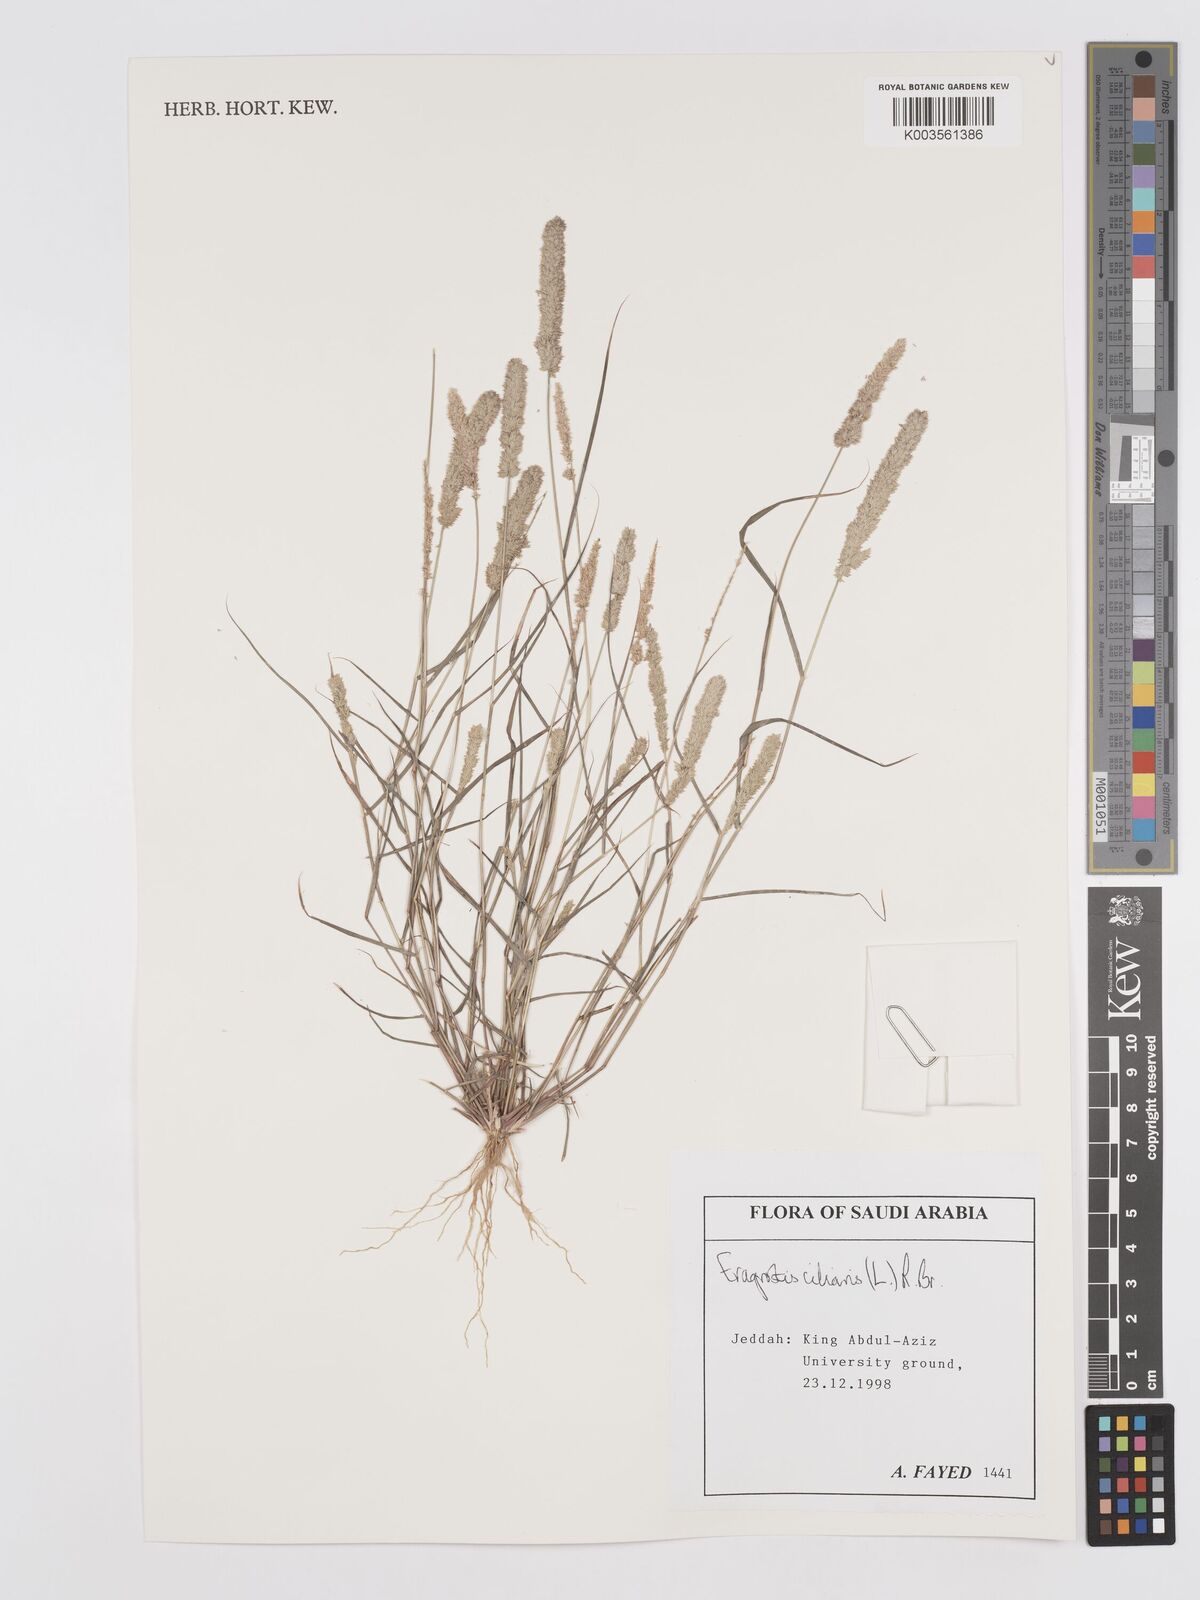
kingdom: Plantae
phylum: Tracheophyta
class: Liliopsida
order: Poales
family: Poaceae
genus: Eragrostis
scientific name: Eragrostis ciliaris
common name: Gophertail lovegrass
